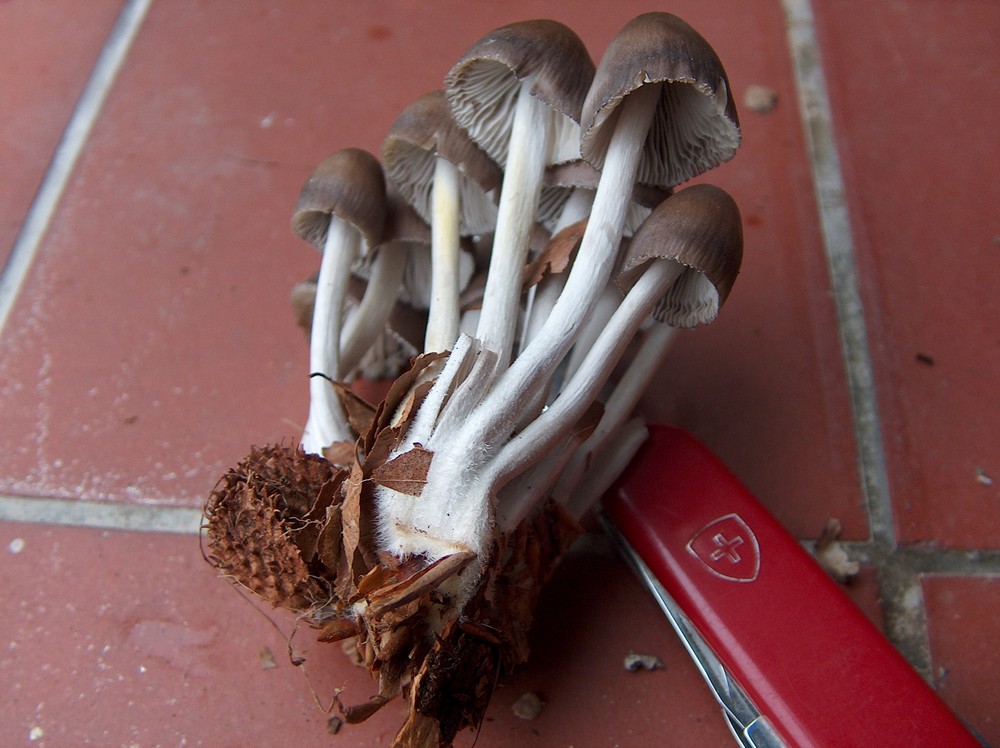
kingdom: Fungi
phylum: Basidiomycota
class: Agaricomycetes
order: Agaricales
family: Mycenaceae
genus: Mycena
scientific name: Mycena inclinata
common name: nikkende huesvamp
